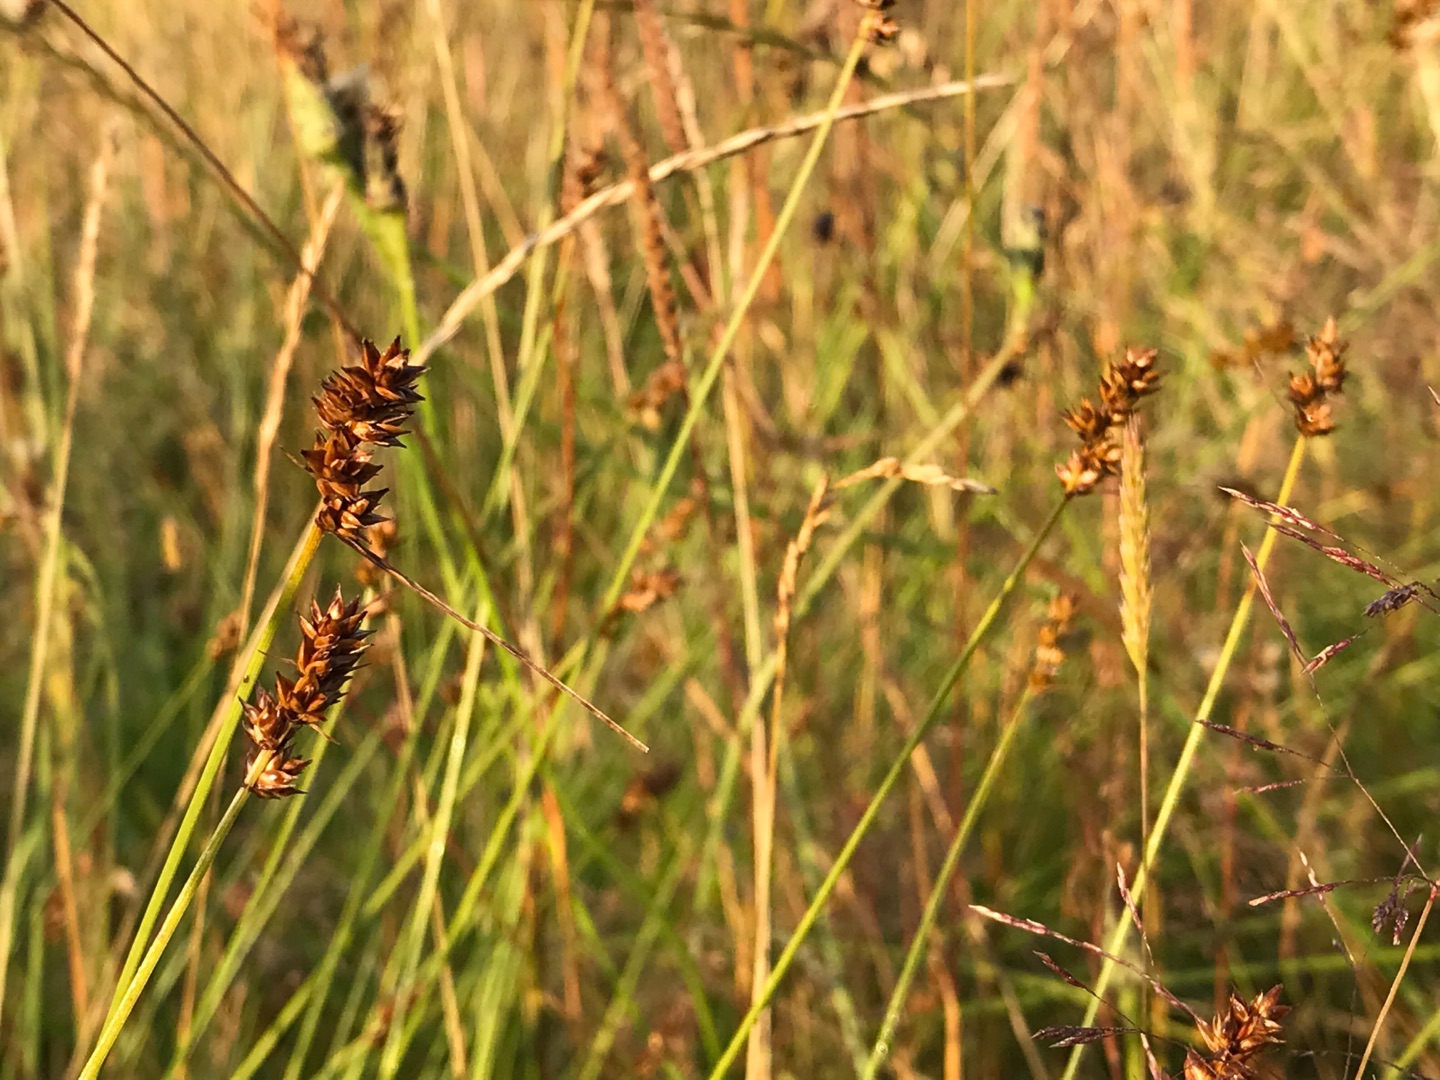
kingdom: Plantae
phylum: Tracheophyta
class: Liliopsida
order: Poales
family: Cyperaceae
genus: Carex
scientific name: Carex pairae
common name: Pigget star
